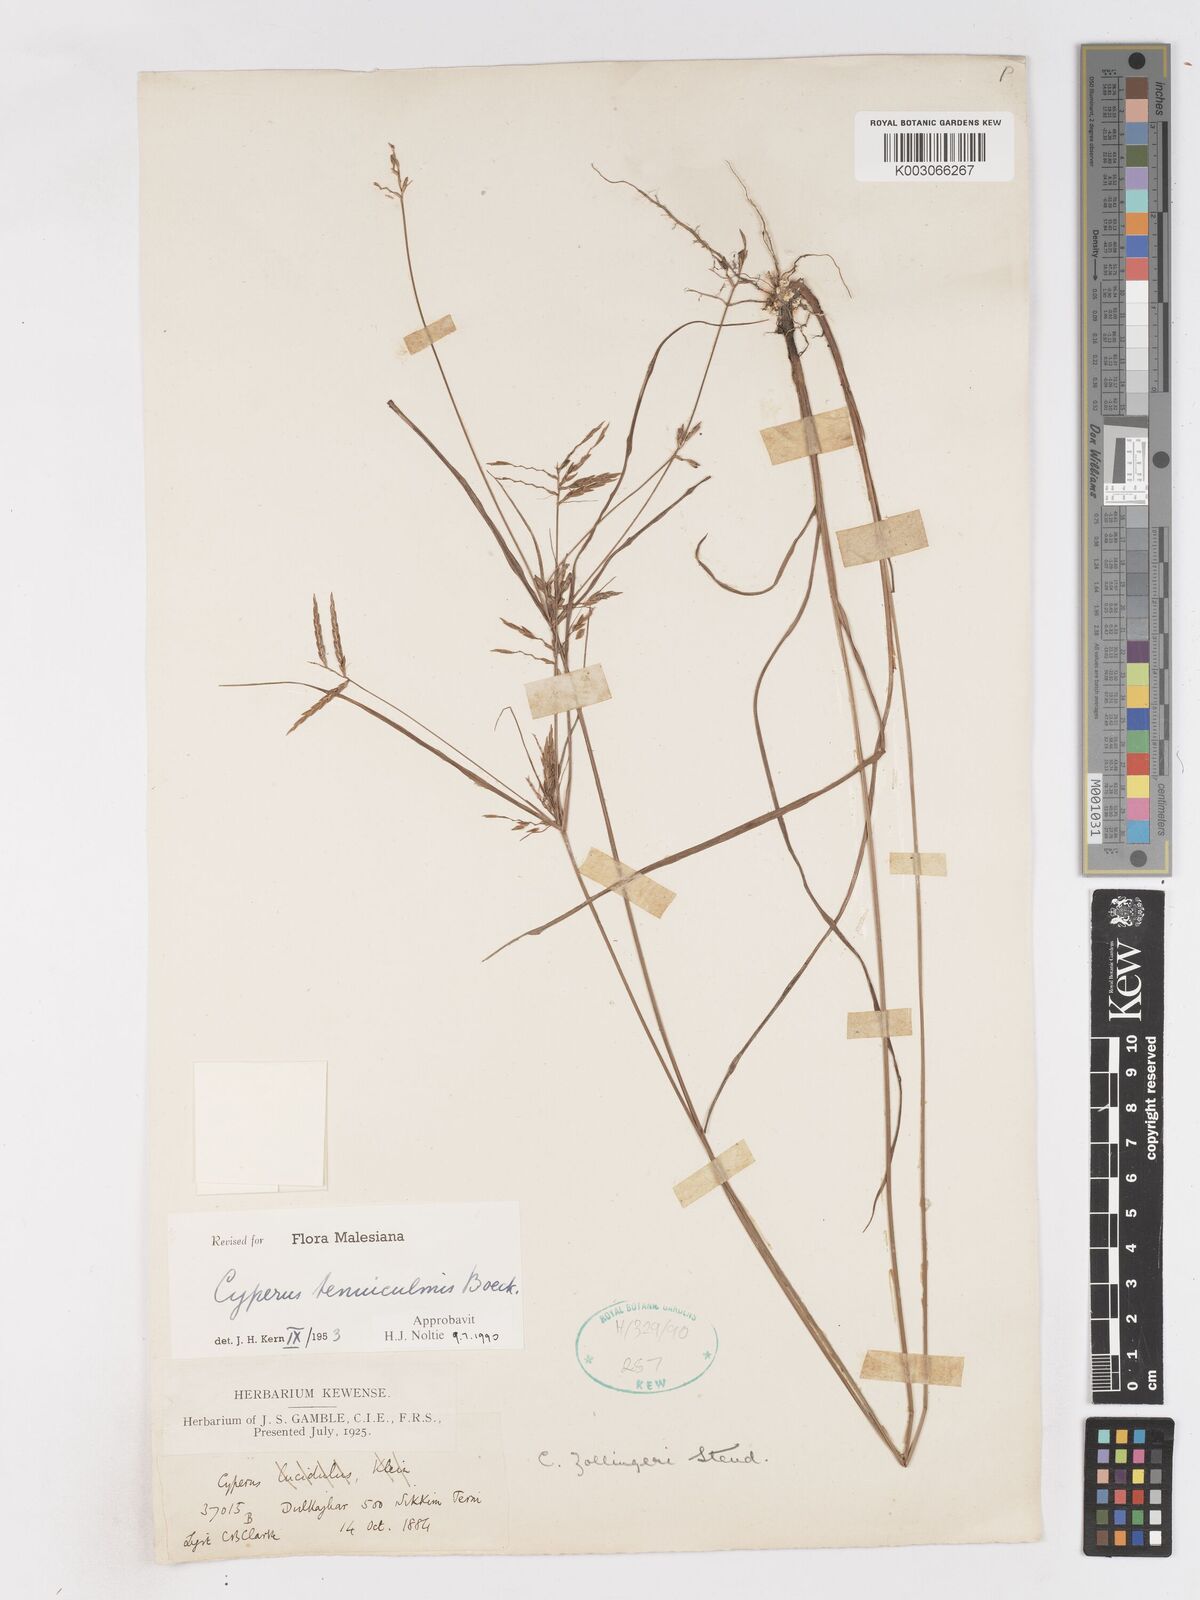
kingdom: Plantae
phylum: Tracheophyta
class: Liliopsida
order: Poales
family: Cyperaceae
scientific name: Cyperaceae
